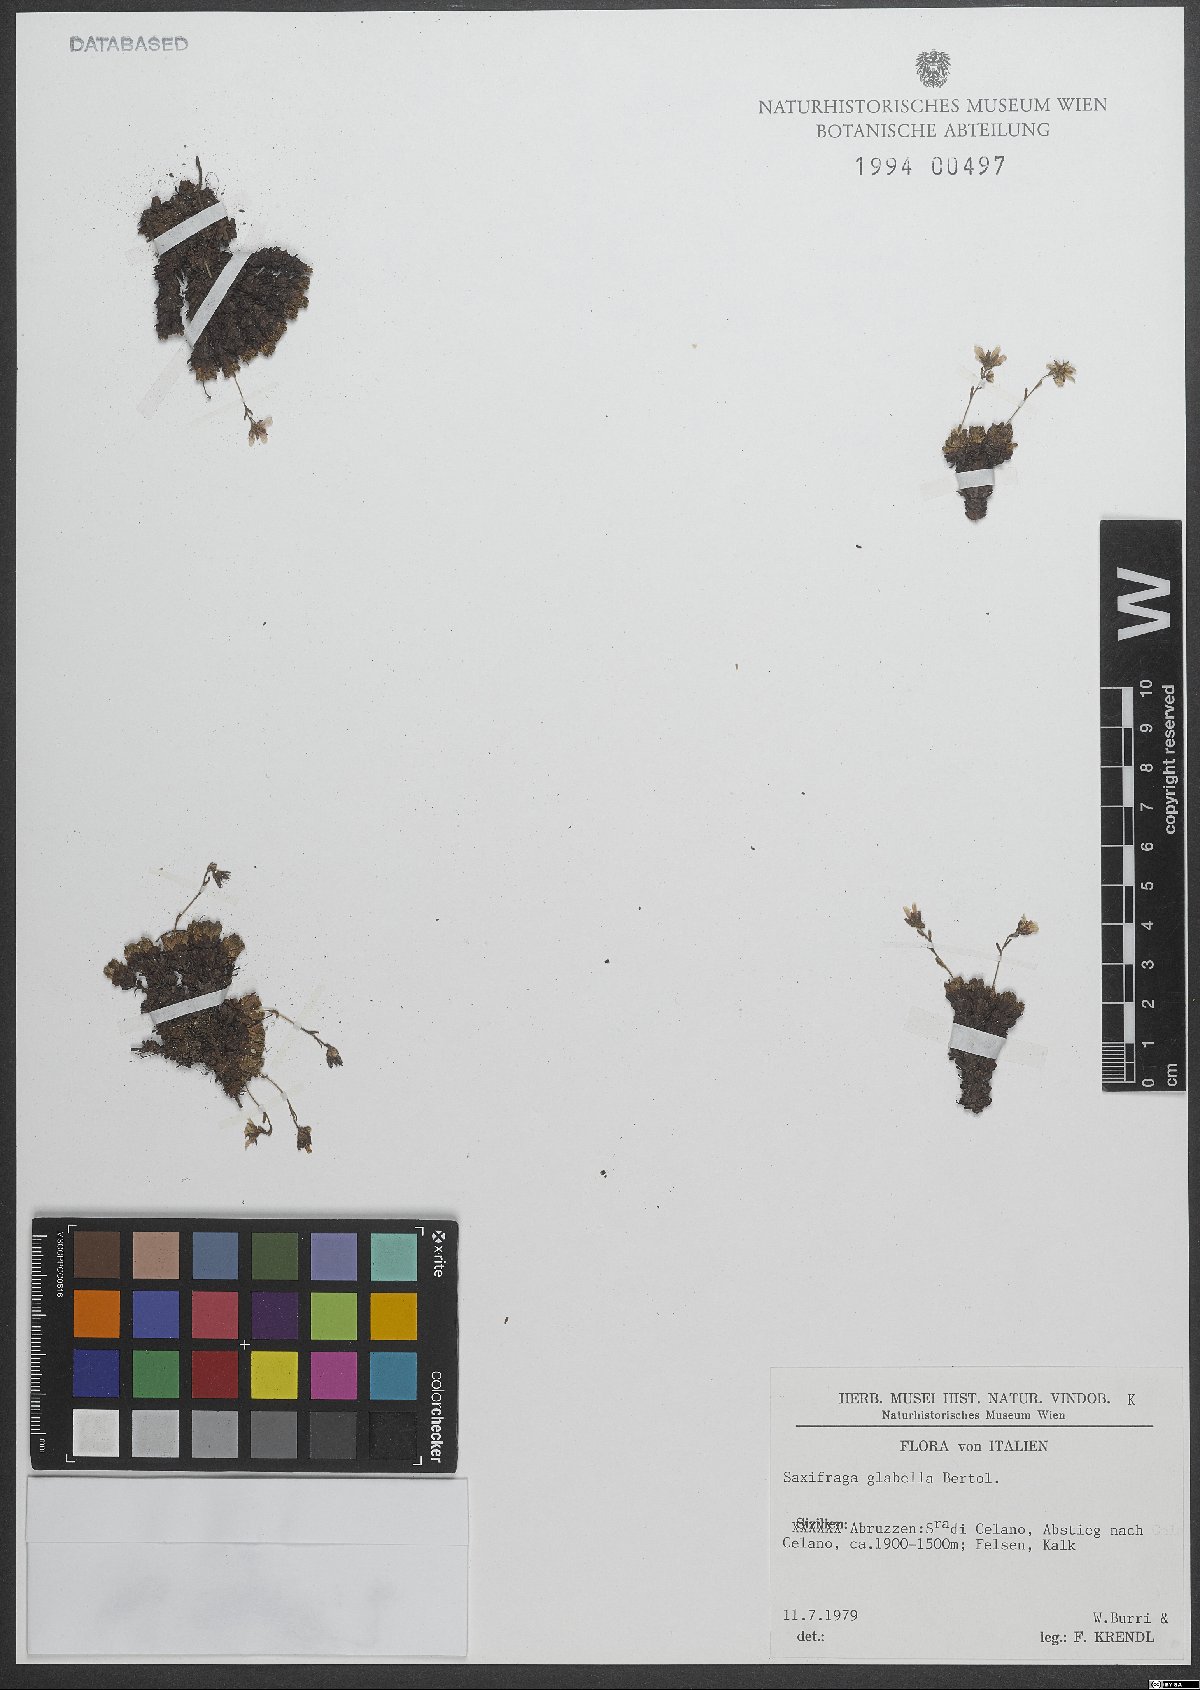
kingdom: Plantae
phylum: Tracheophyta
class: Magnoliopsida
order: Saxifragales
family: Saxifragaceae
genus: Saxifraga
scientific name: Saxifraga glabella
